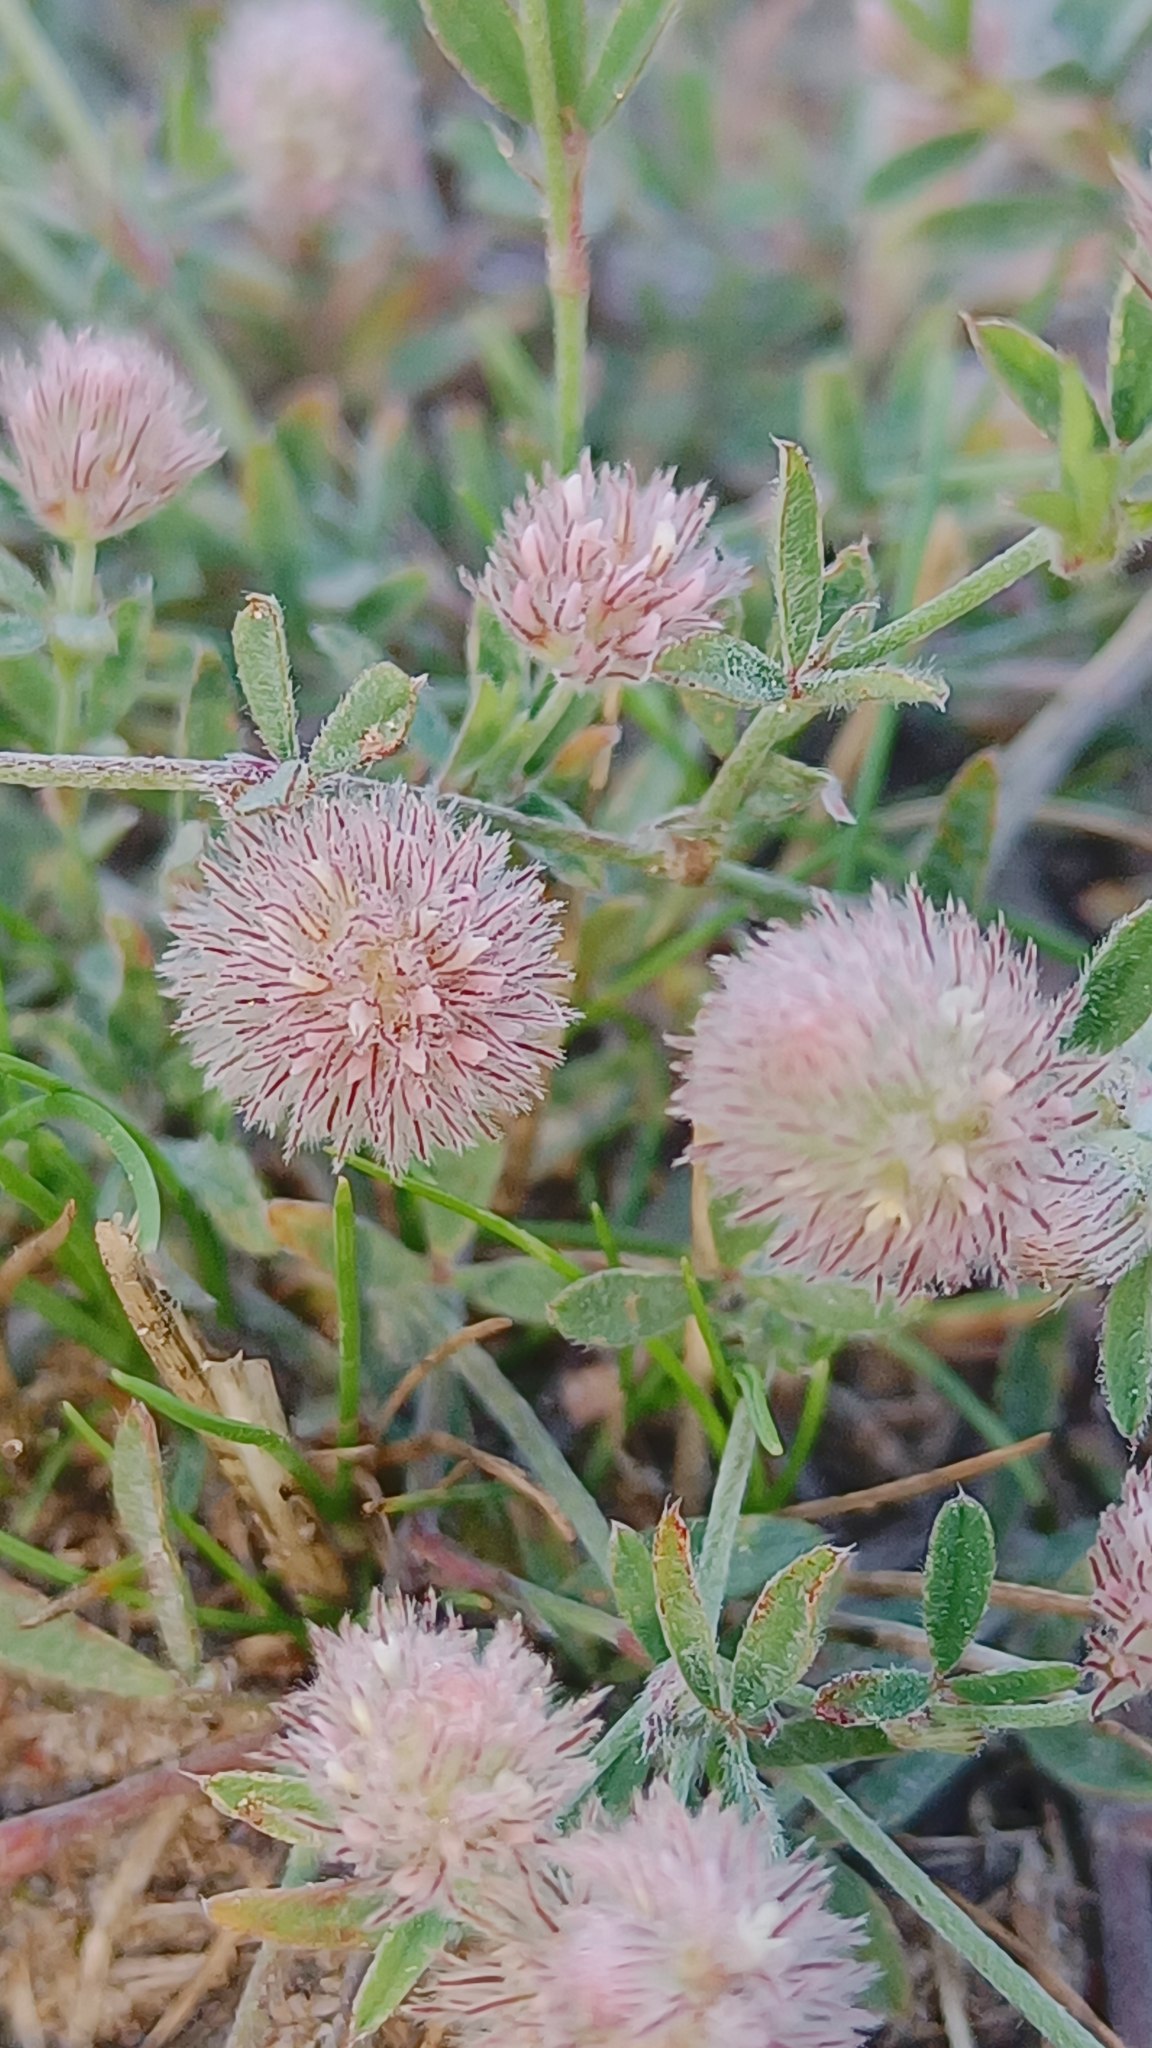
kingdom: Plantae
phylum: Tracheophyta
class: Magnoliopsida
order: Fabales
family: Fabaceae
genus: Trifolium
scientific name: Trifolium arvense
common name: Hare-kløver
